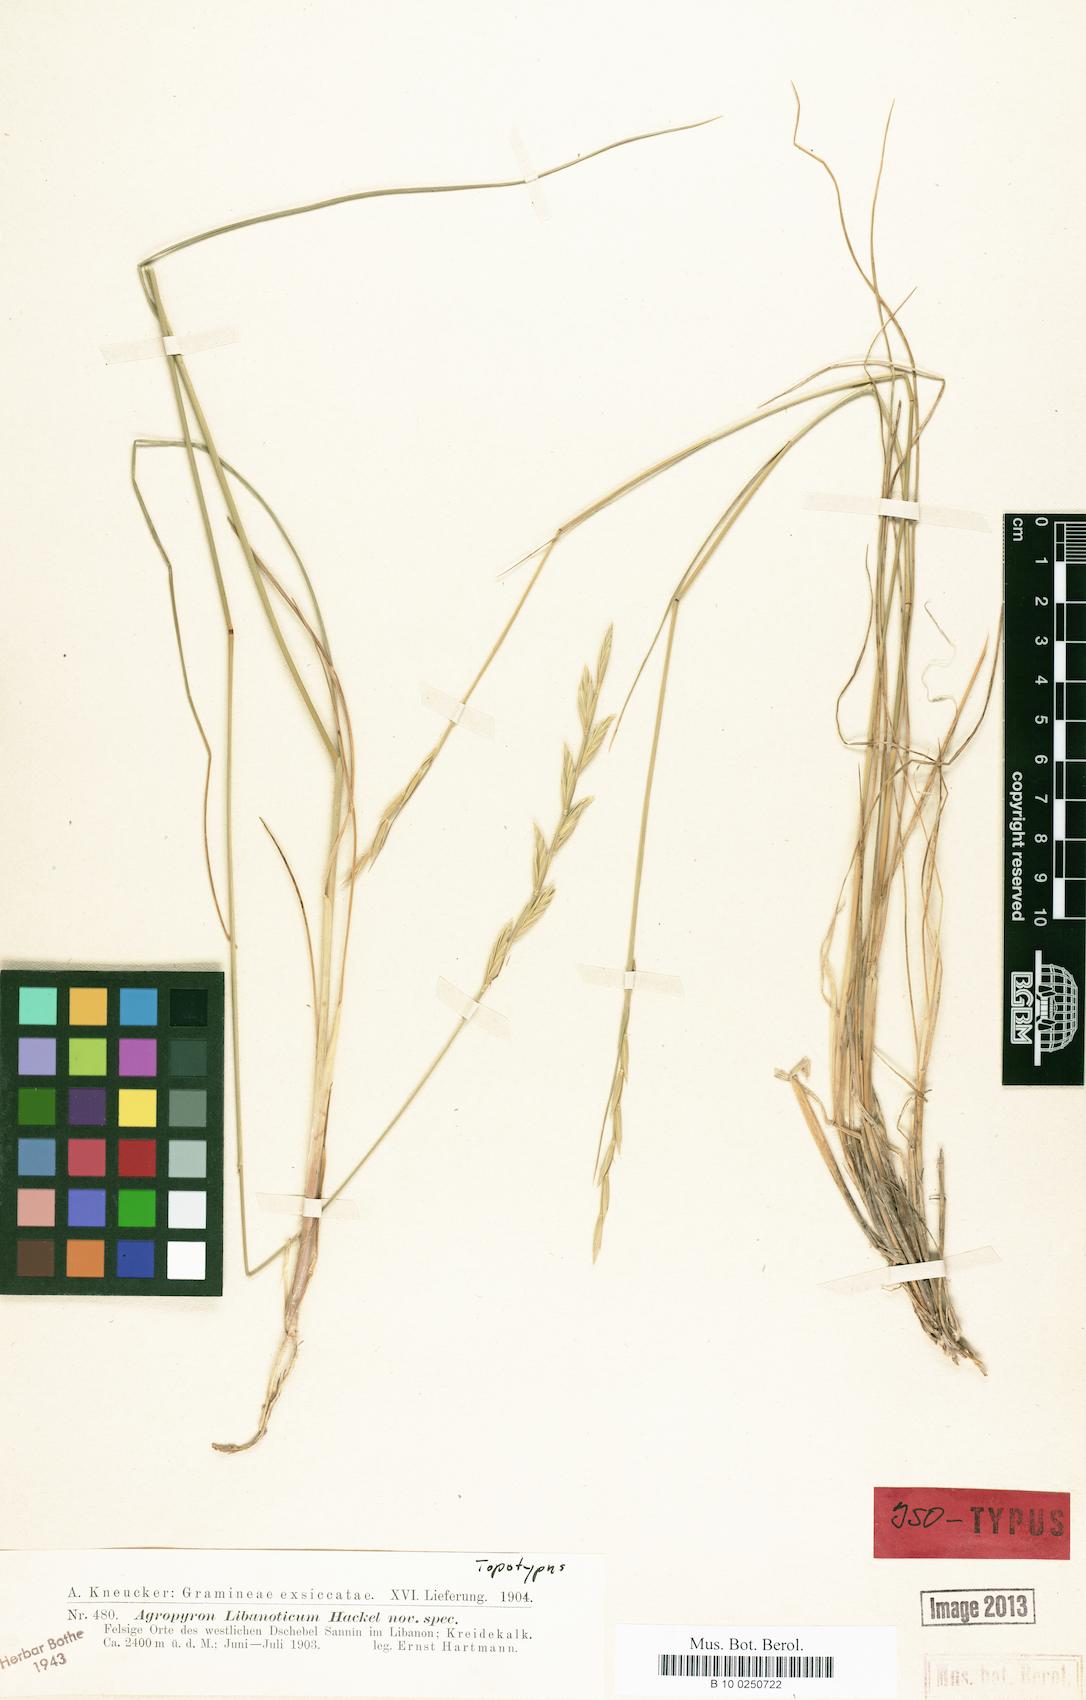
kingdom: Plantae
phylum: Tracheophyta
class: Liliopsida
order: Poales
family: Poaceae
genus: Pseudoroegneria
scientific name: Pseudoroegneria libanotica
